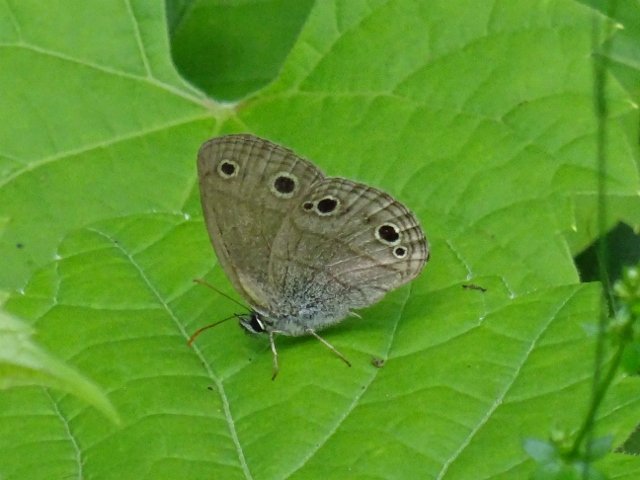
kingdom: Animalia
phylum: Arthropoda
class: Insecta
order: Lepidoptera
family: Nymphalidae
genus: Euptychia
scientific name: Euptychia cymela
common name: Little Wood Satyr
